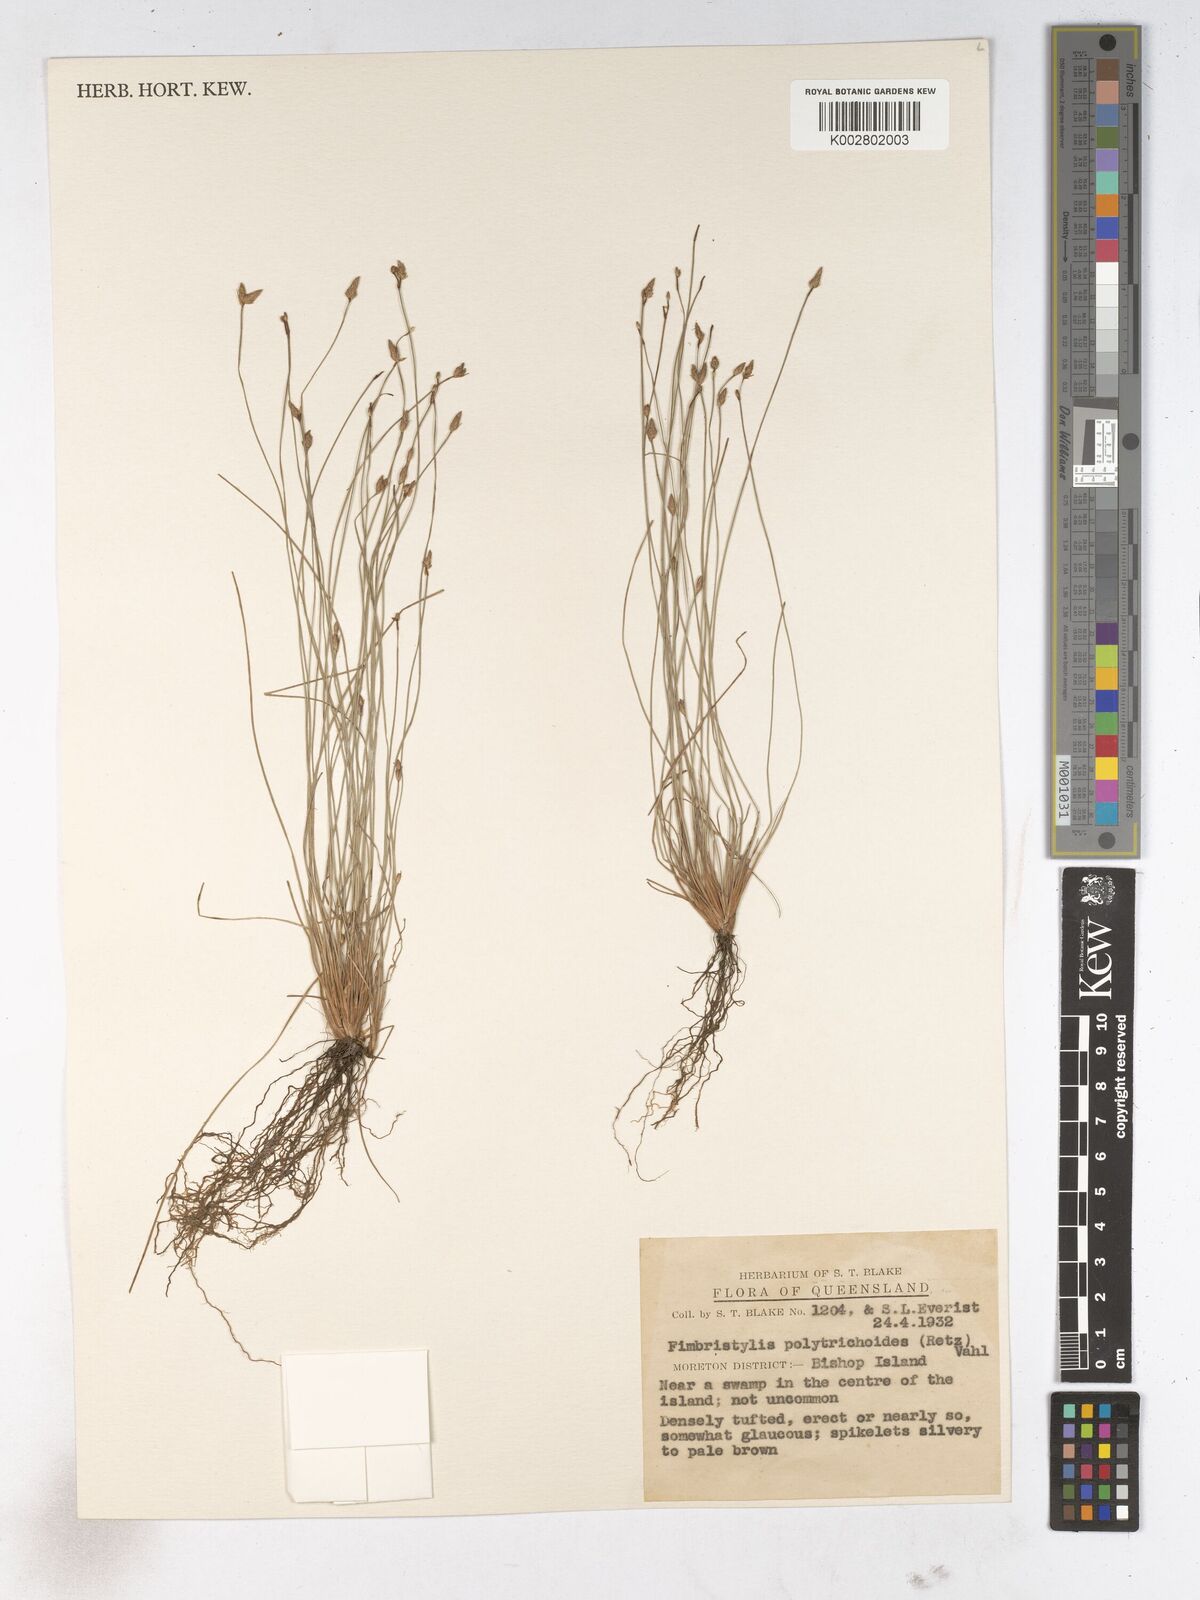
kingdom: Plantae
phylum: Tracheophyta
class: Liliopsida
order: Poales
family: Cyperaceae
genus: Fimbristylis
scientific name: Fimbristylis polytrichoides
